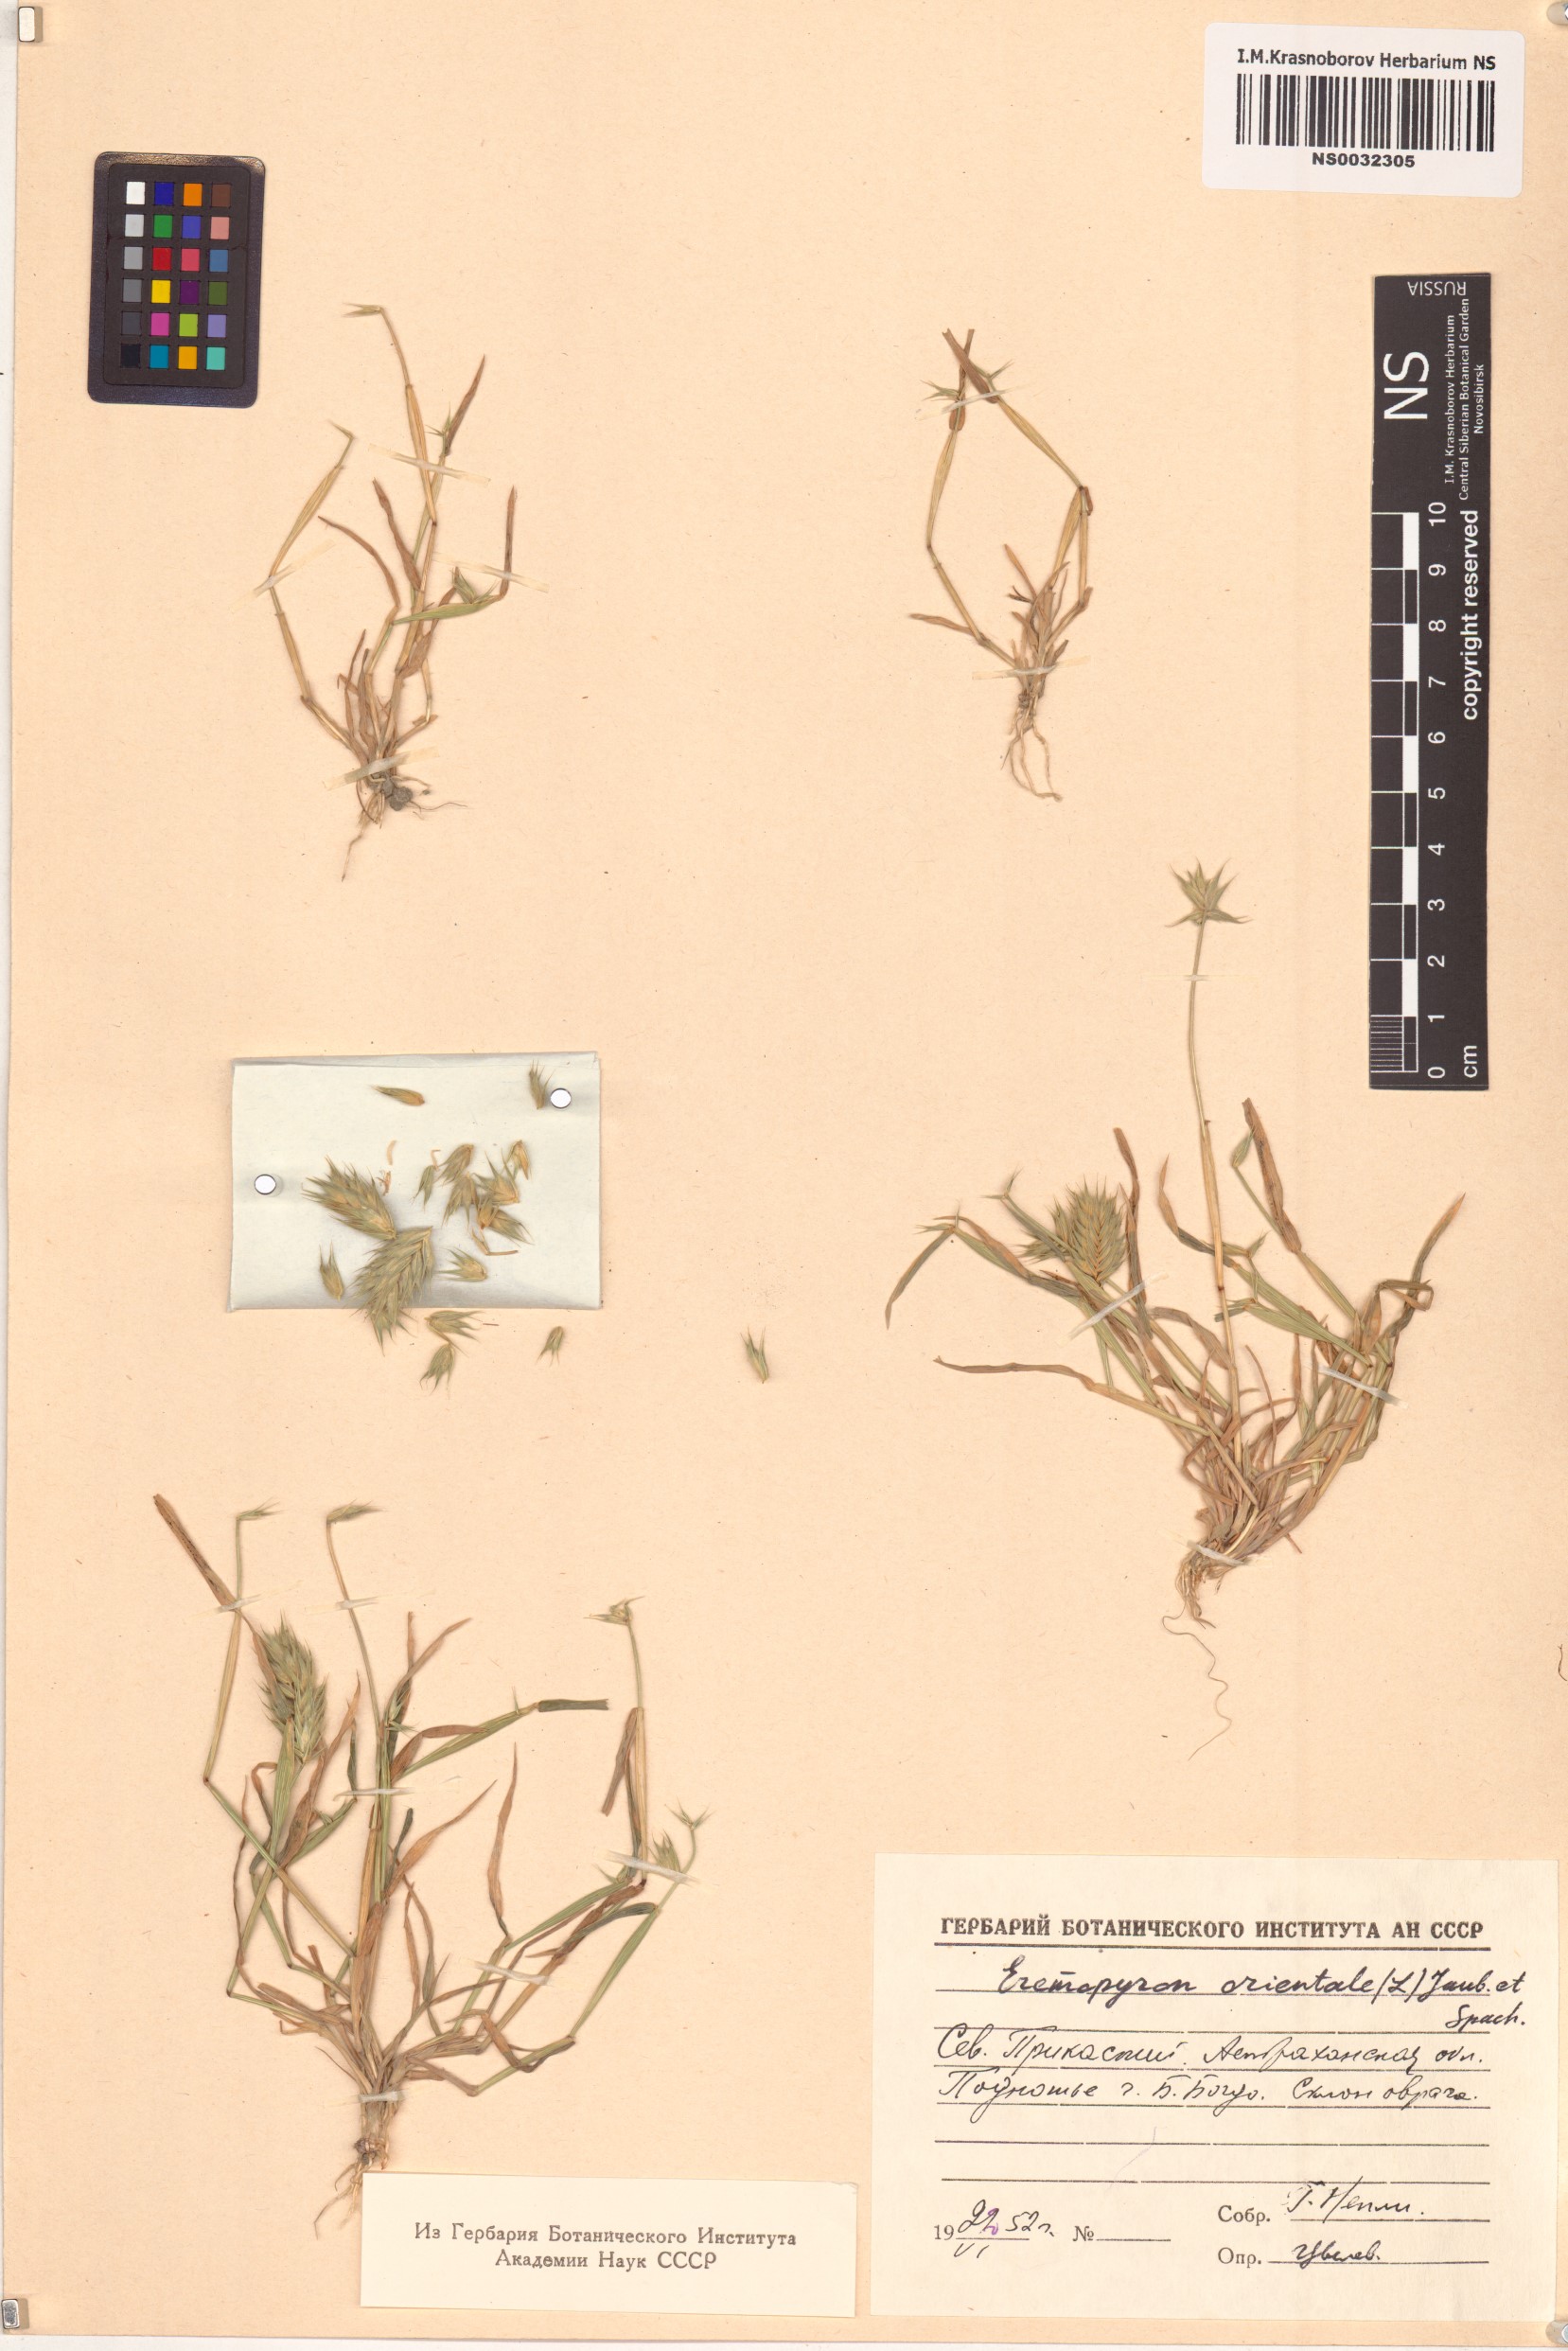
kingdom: Plantae
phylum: Tracheophyta
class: Liliopsida
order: Poales
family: Poaceae
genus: Eremopyrum
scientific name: Eremopyrum orientale
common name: Oriental false wheatgrass
